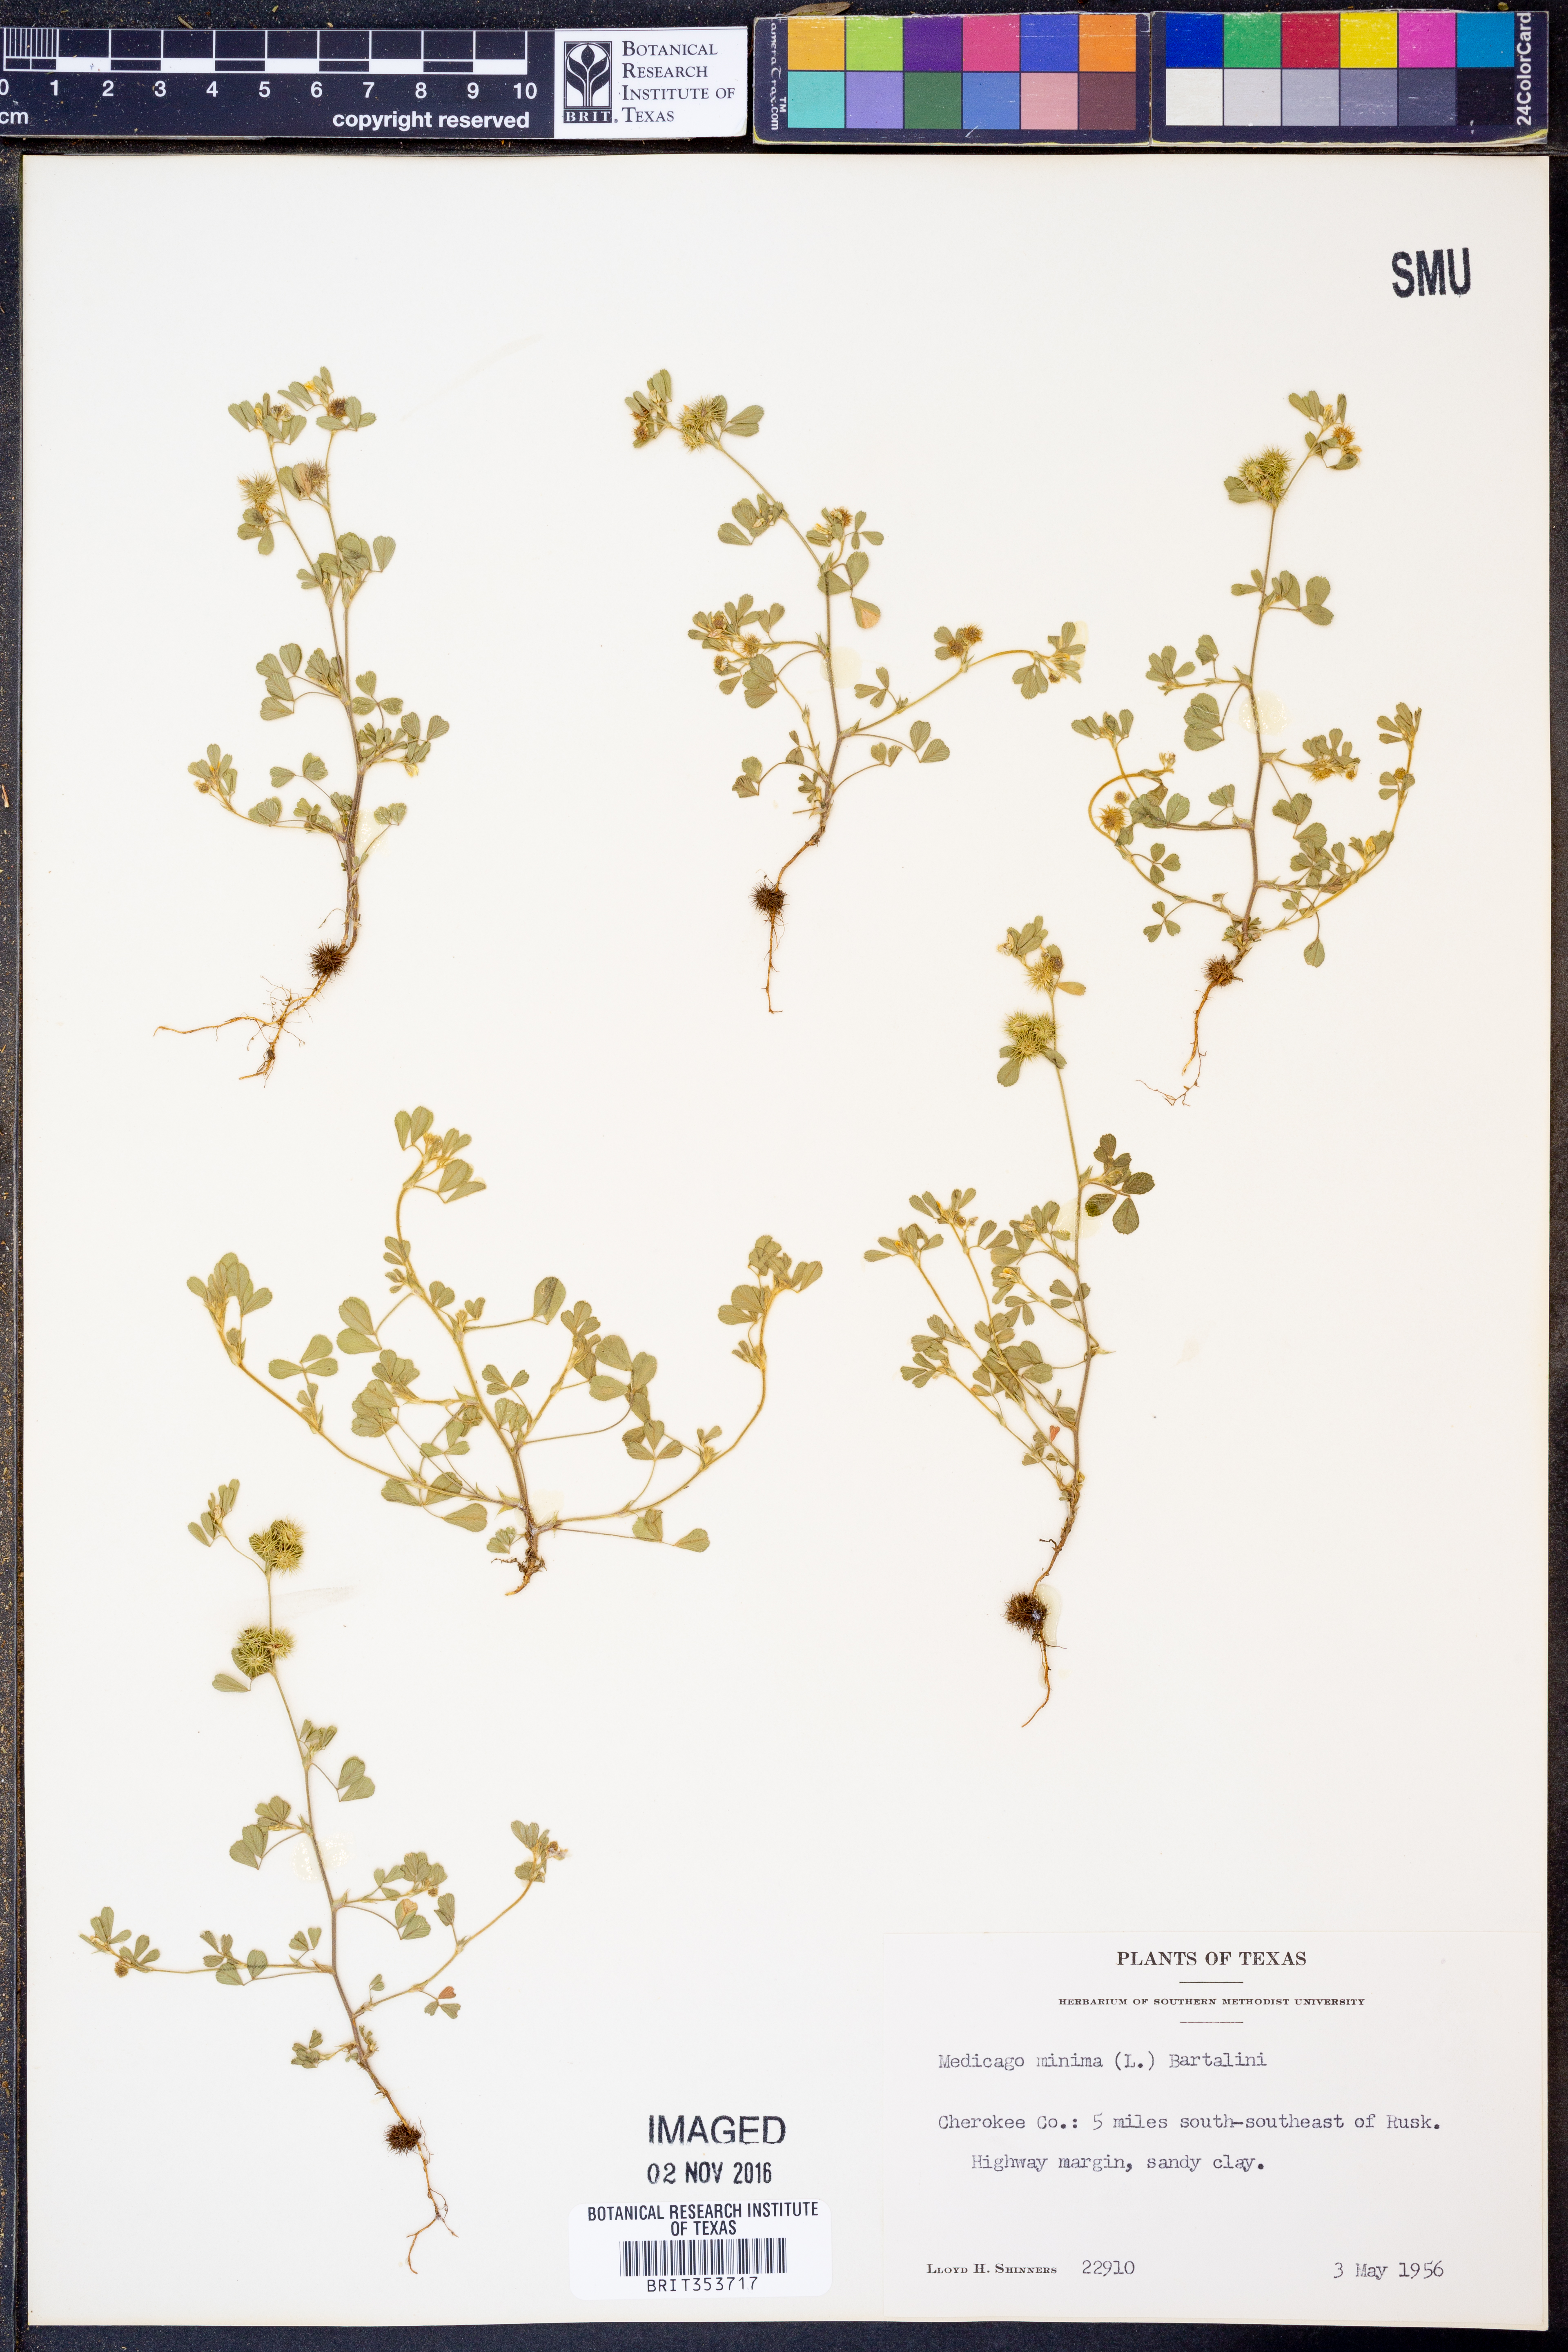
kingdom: Plantae
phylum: Tracheophyta
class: Magnoliopsida
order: Fabales
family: Fabaceae
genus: Medicago
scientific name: Medicago minima
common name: Little bur-clover
